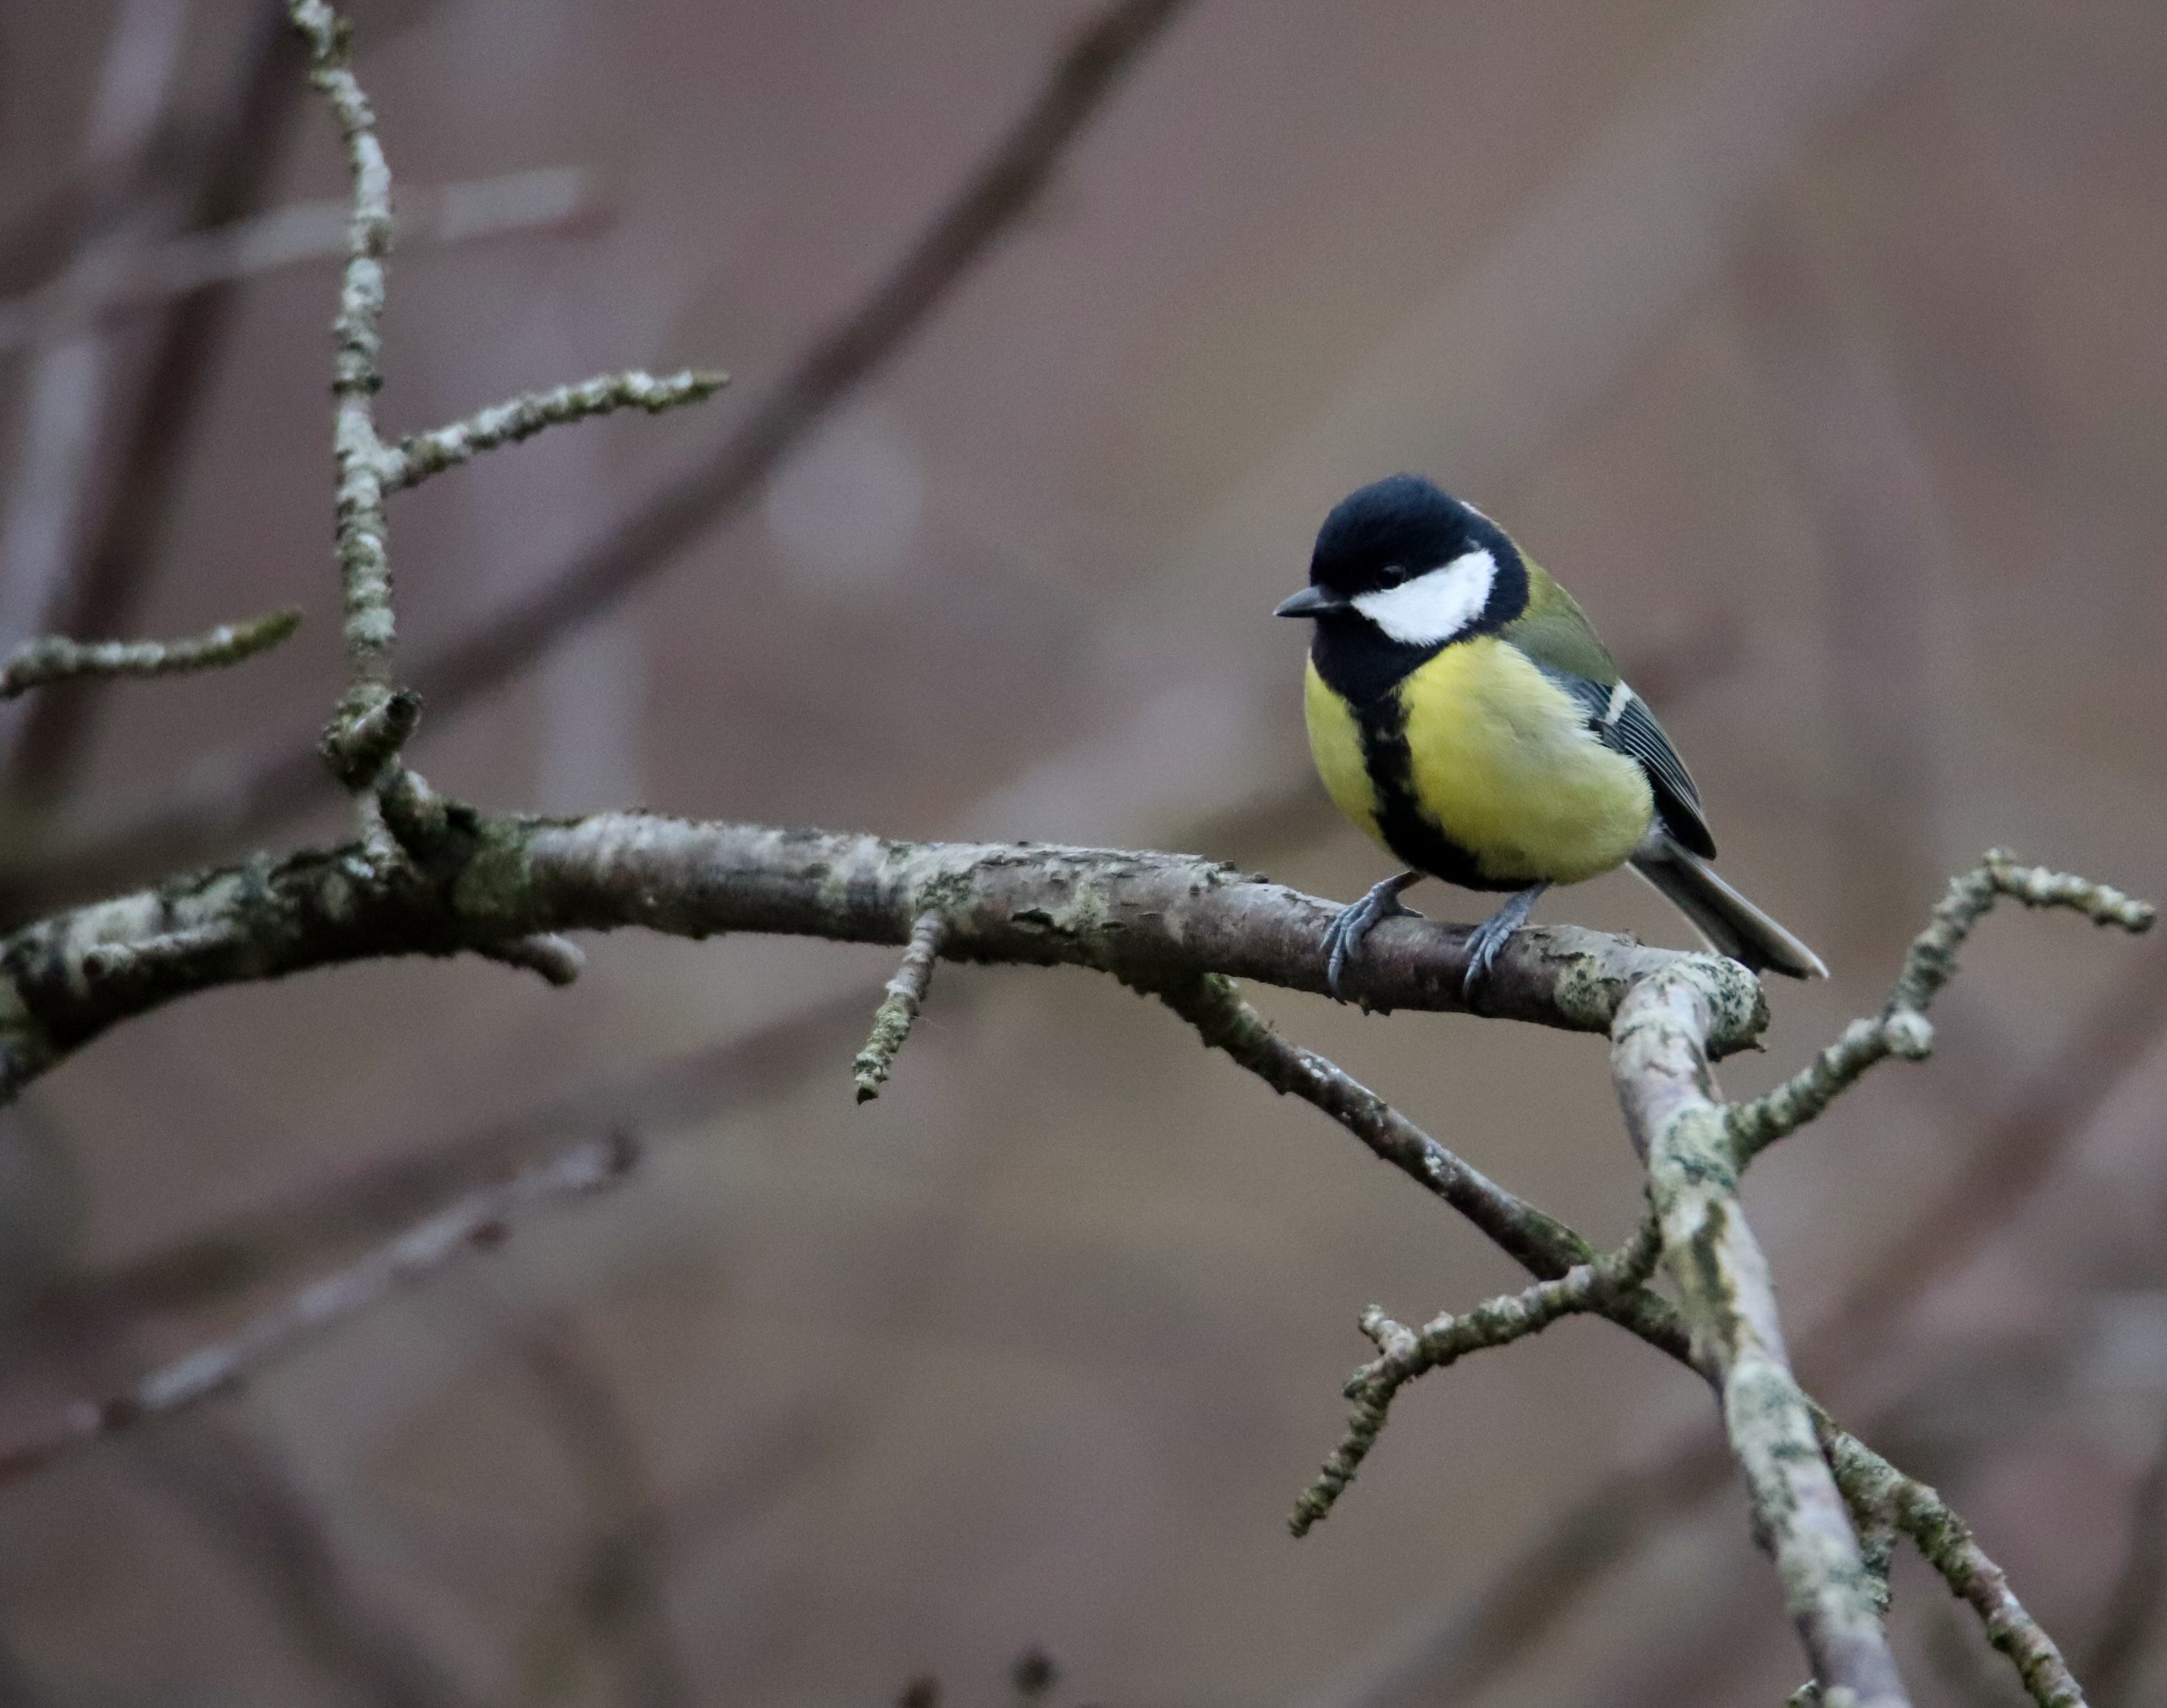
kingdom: Animalia
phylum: Chordata
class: Aves
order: Passeriformes
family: Paridae
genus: Parus
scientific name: Parus major
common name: Musvit
